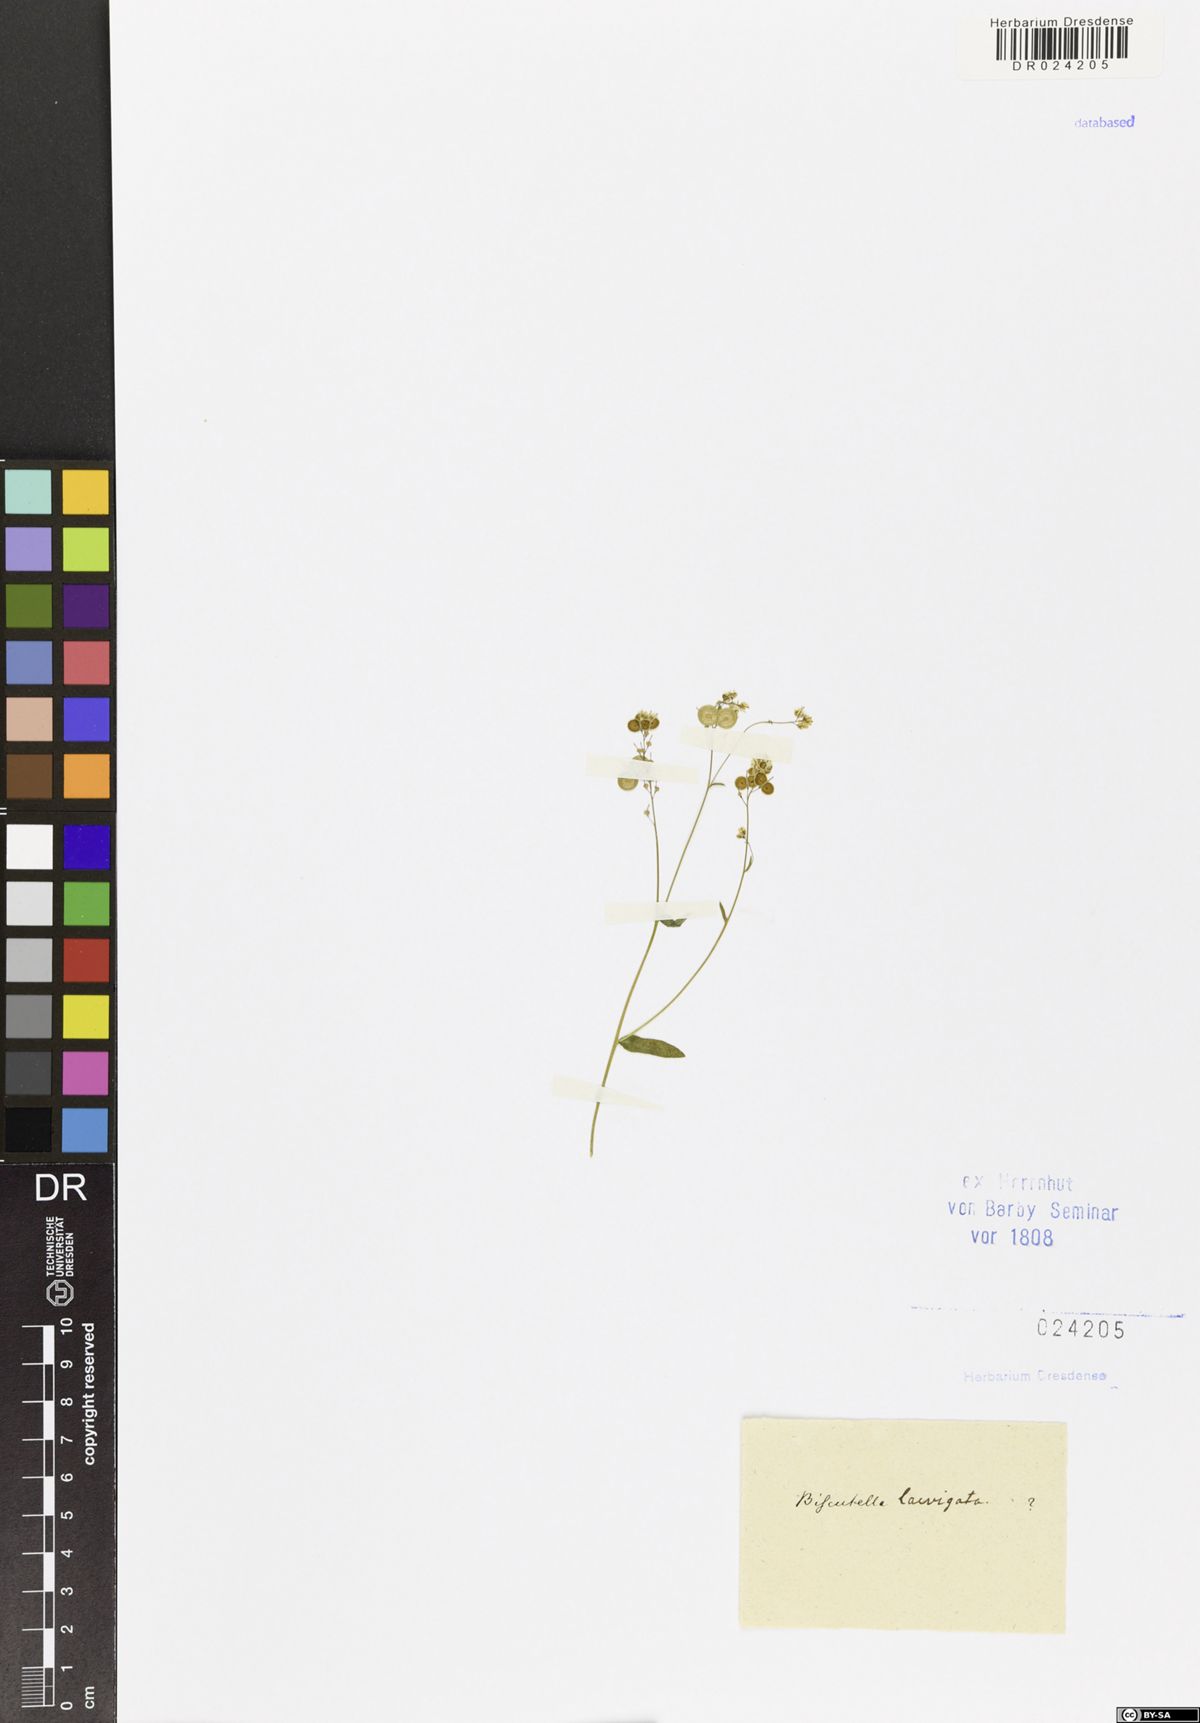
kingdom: Plantae
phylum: Tracheophyta
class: Magnoliopsida
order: Brassicales
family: Brassicaceae
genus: Biscutella
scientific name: Biscutella laevigata
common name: Buckler mustard
